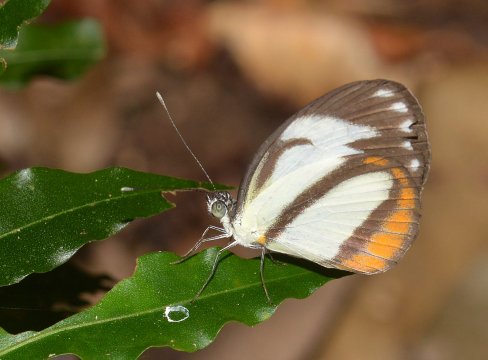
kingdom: Animalia
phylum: Arthropoda
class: Insecta
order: Lepidoptera
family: Pieridae
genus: Itaballia
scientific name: Itaballia pandosia
